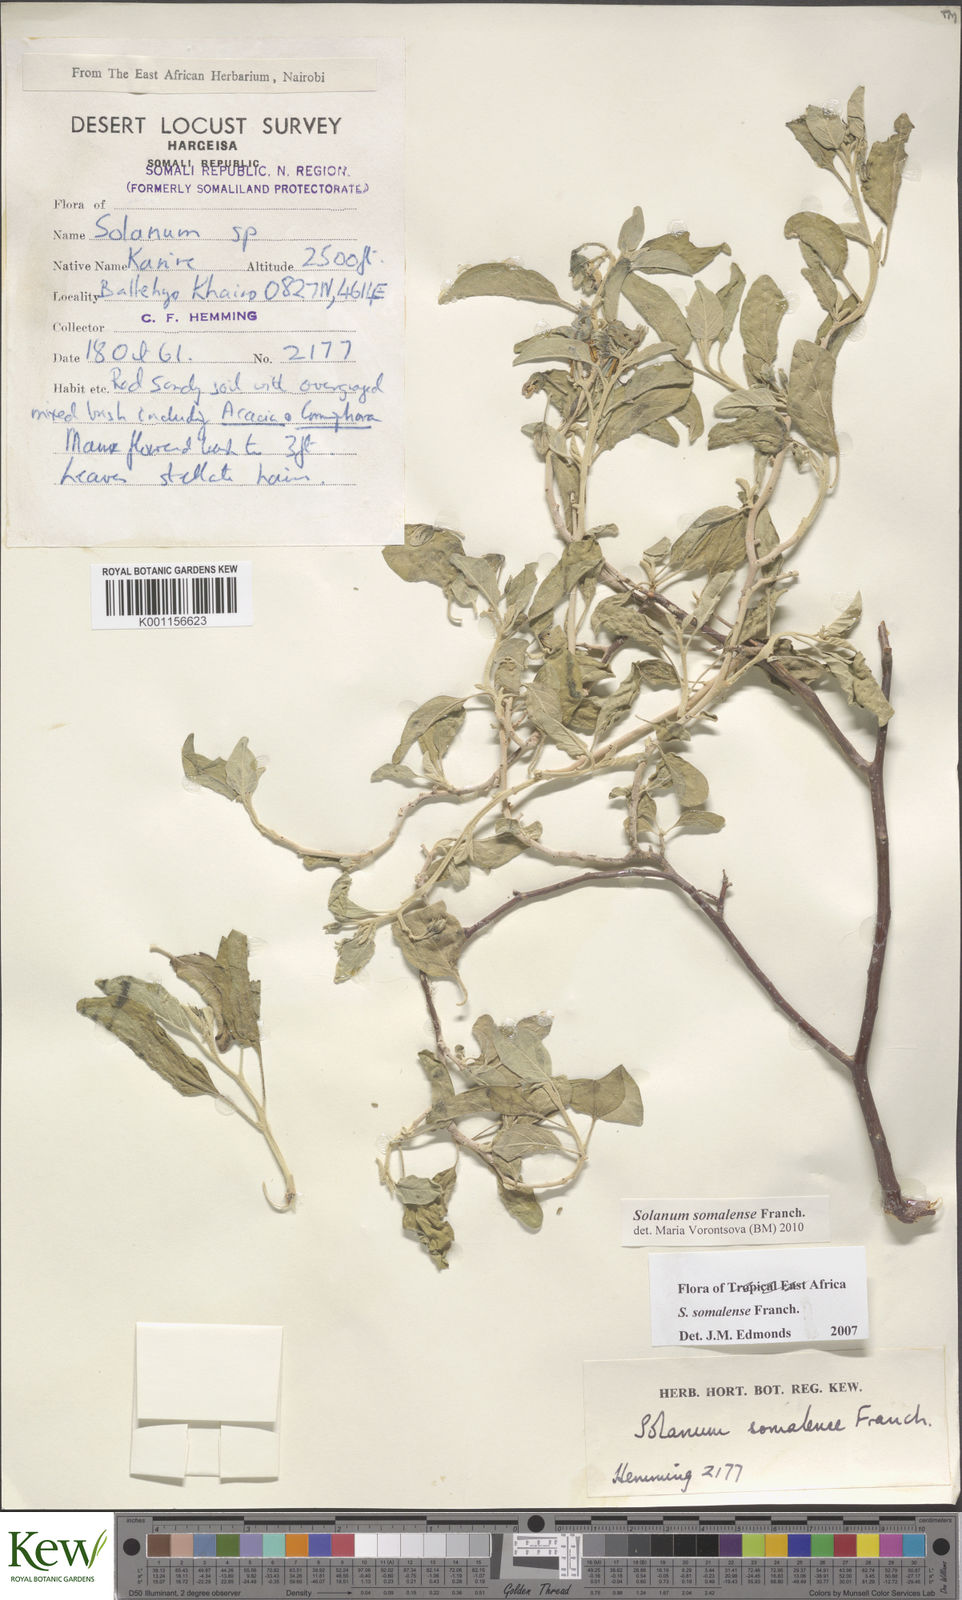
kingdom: Plantae
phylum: Tracheophyta
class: Magnoliopsida
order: Solanales
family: Solanaceae
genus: Solanum
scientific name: Solanum somalense
